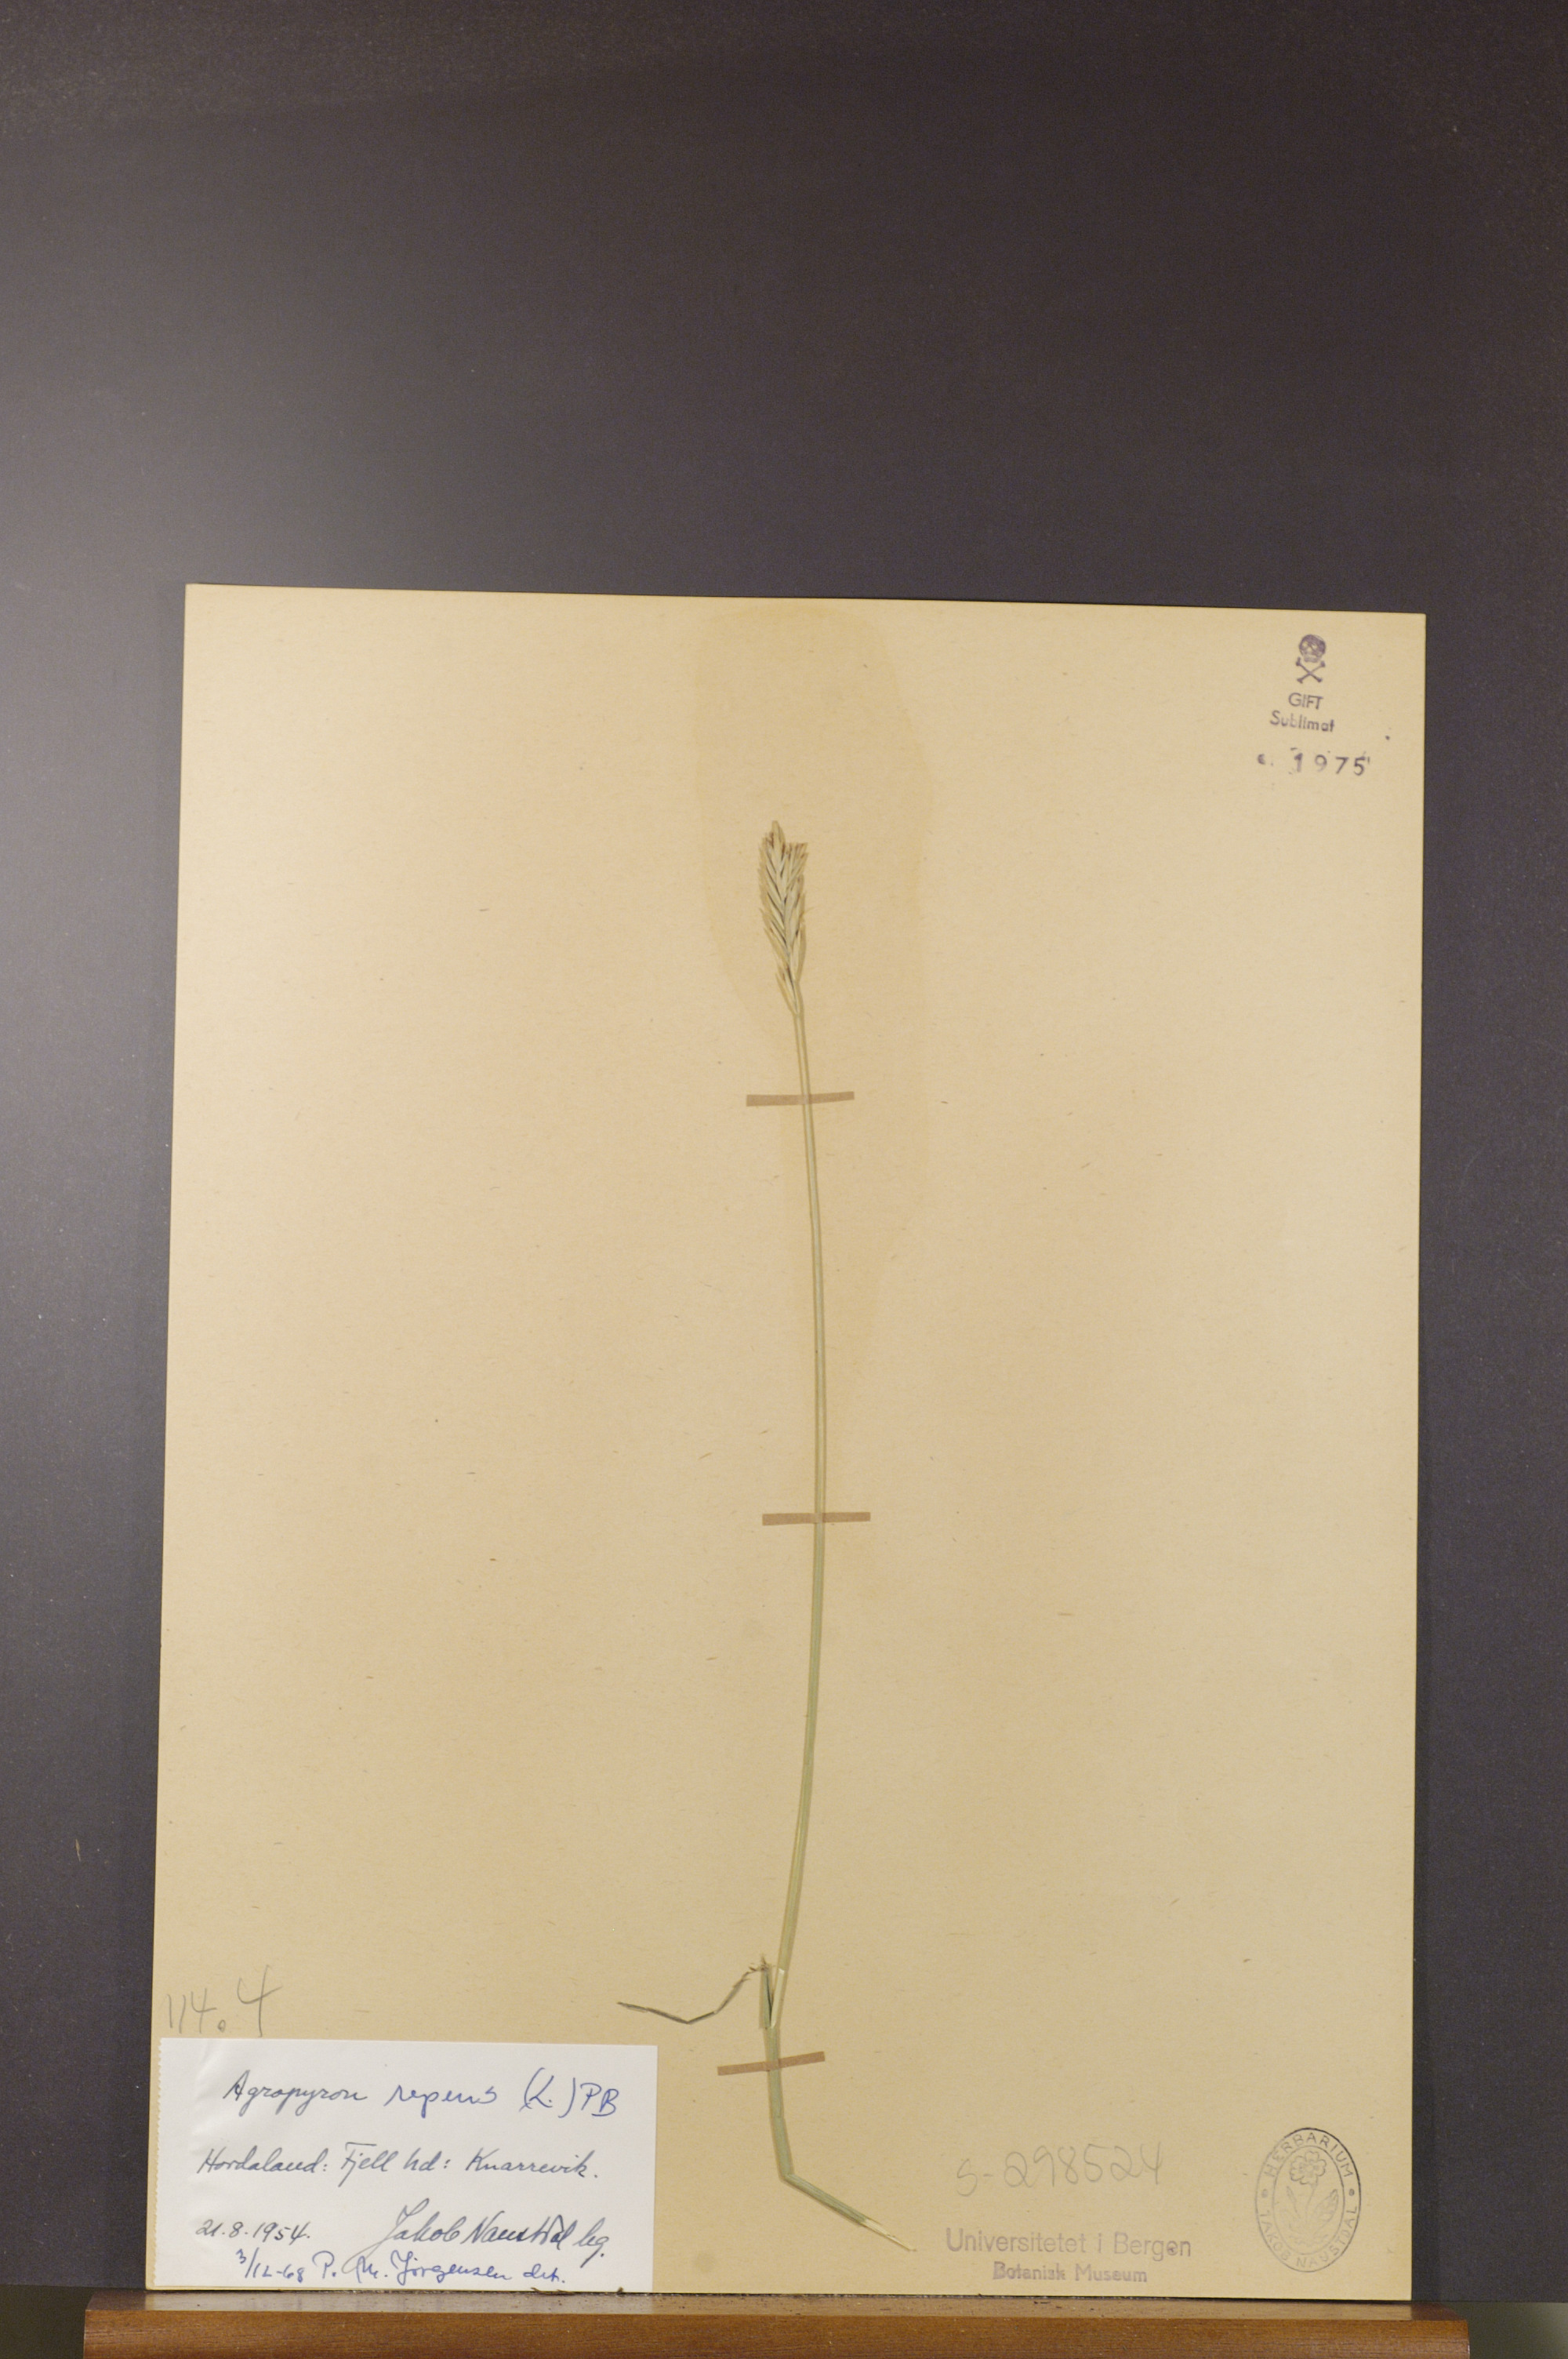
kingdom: Plantae
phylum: Tracheophyta
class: Liliopsida
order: Poales
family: Poaceae
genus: Elymus
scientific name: Elymus repens
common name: Quackgrass
